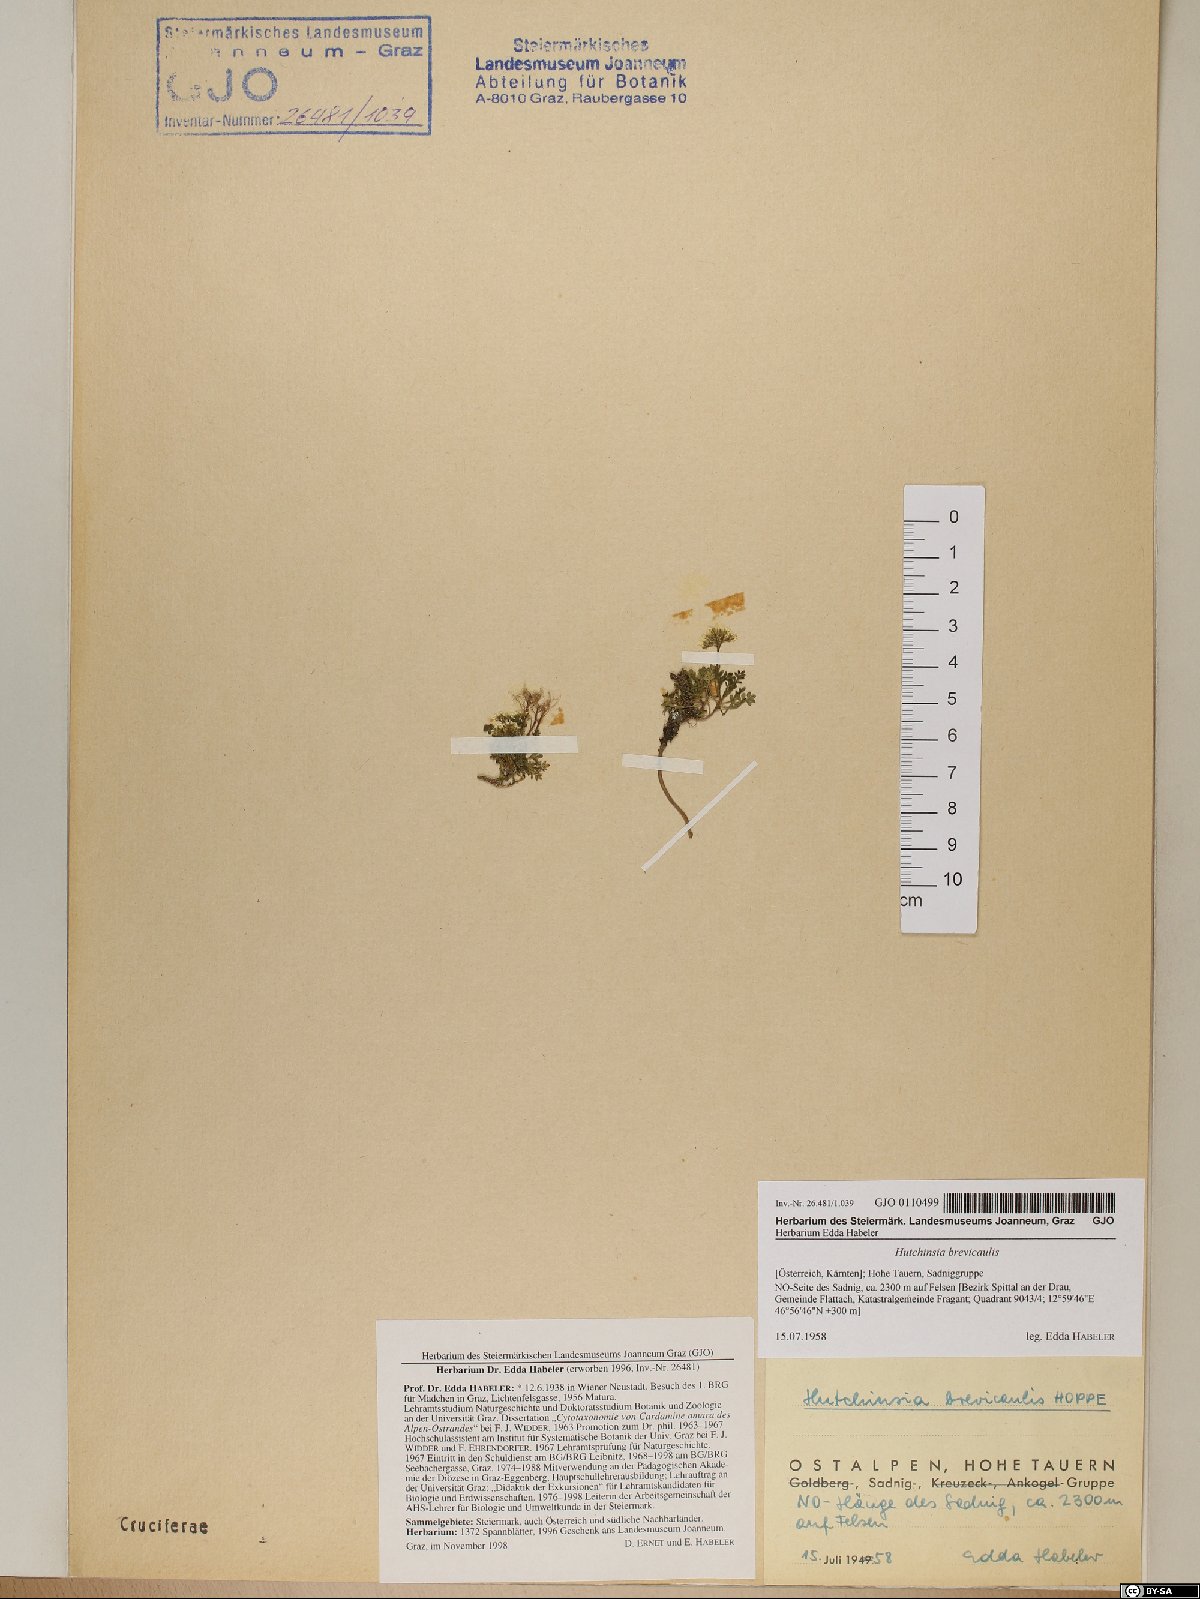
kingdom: Plantae
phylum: Tracheophyta
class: Magnoliopsida
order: Brassicales
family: Brassicaceae
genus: Hornungia
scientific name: Hornungia alpina
